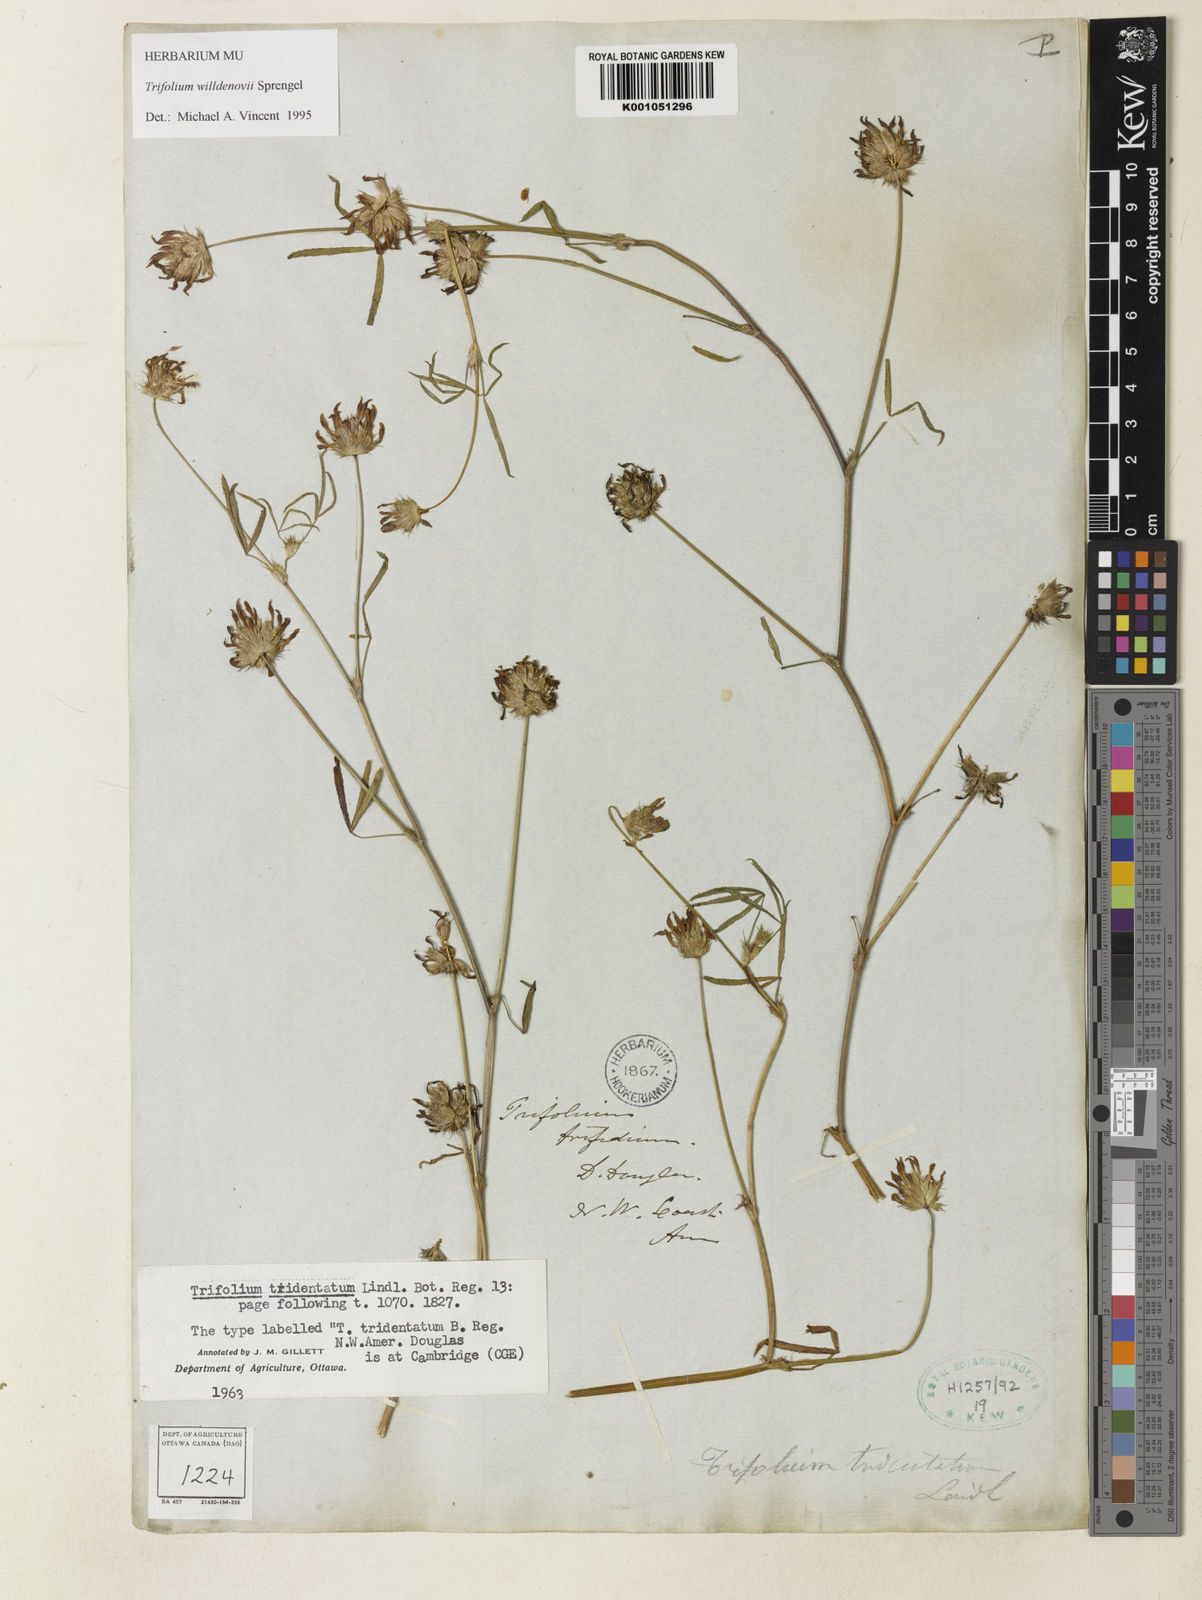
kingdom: Plantae
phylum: Tracheophyta
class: Magnoliopsida
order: Fabales
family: Fabaceae
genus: Trifolium
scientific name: Trifolium willdenovii
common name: Tomcat clover
